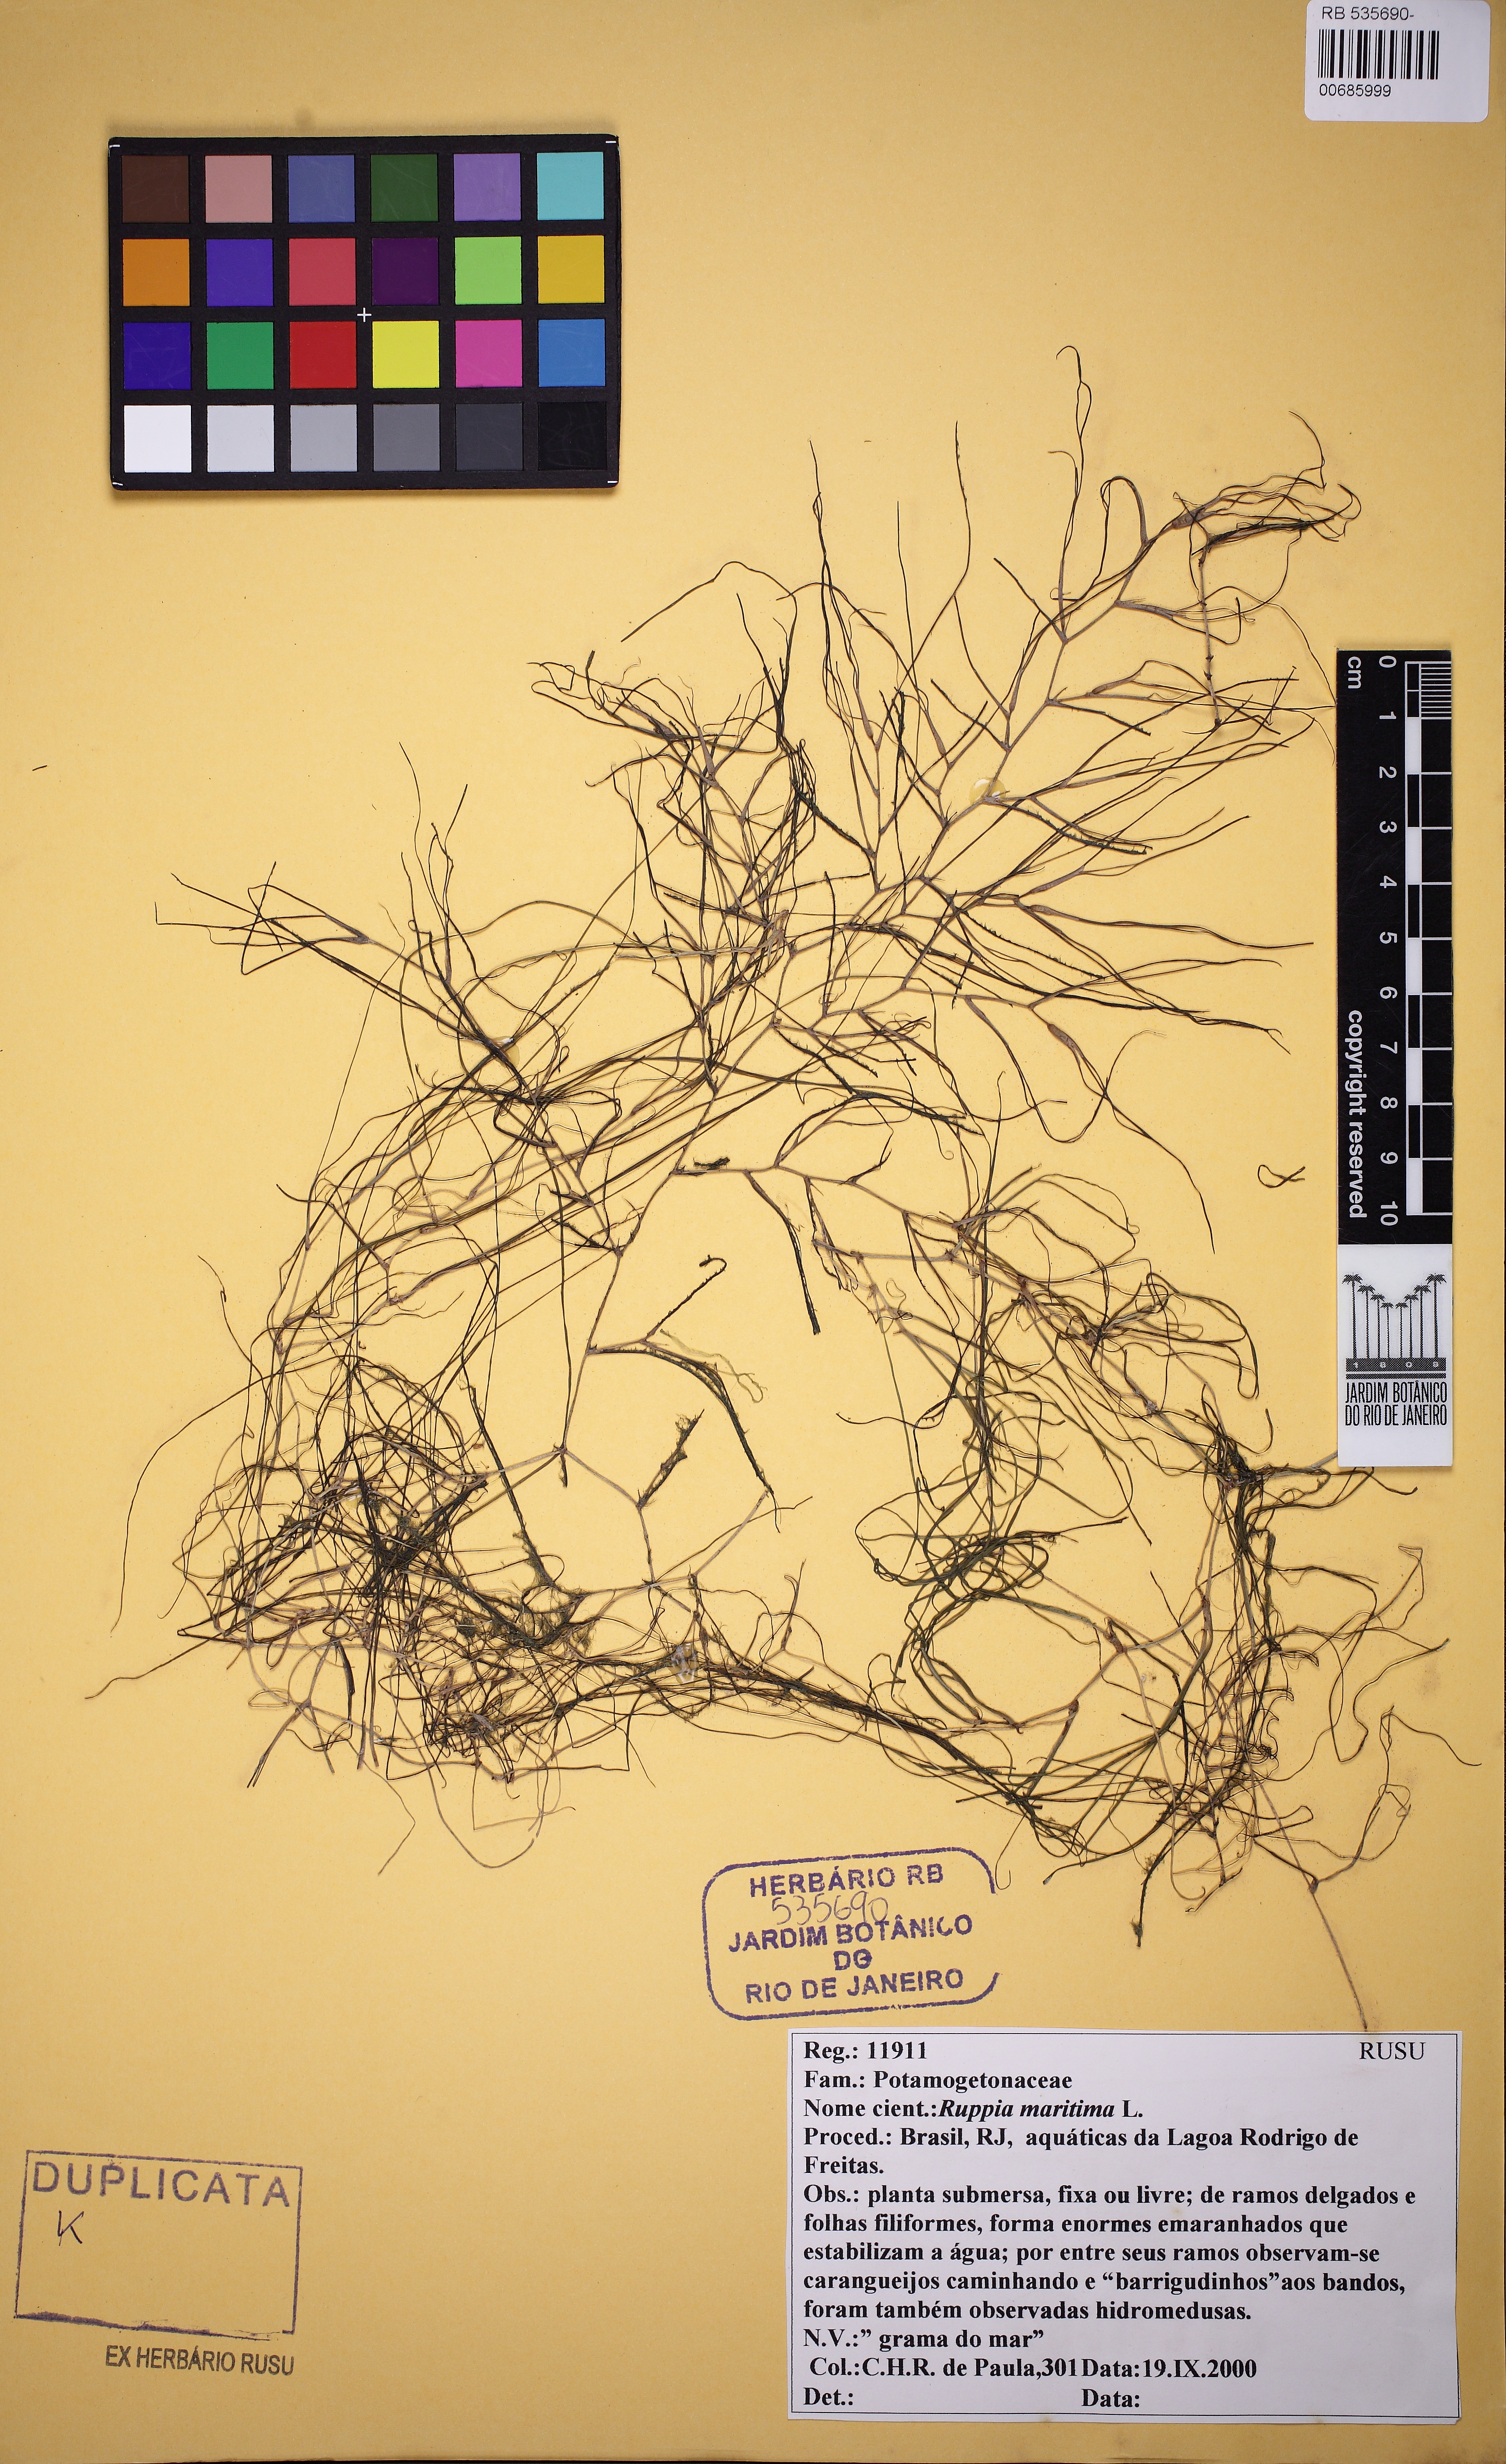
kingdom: Plantae
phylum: Tracheophyta
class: Liliopsida
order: Alismatales
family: Ruppiaceae
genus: Ruppia
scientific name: Ruppia maritima
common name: Beaked tasselweed
